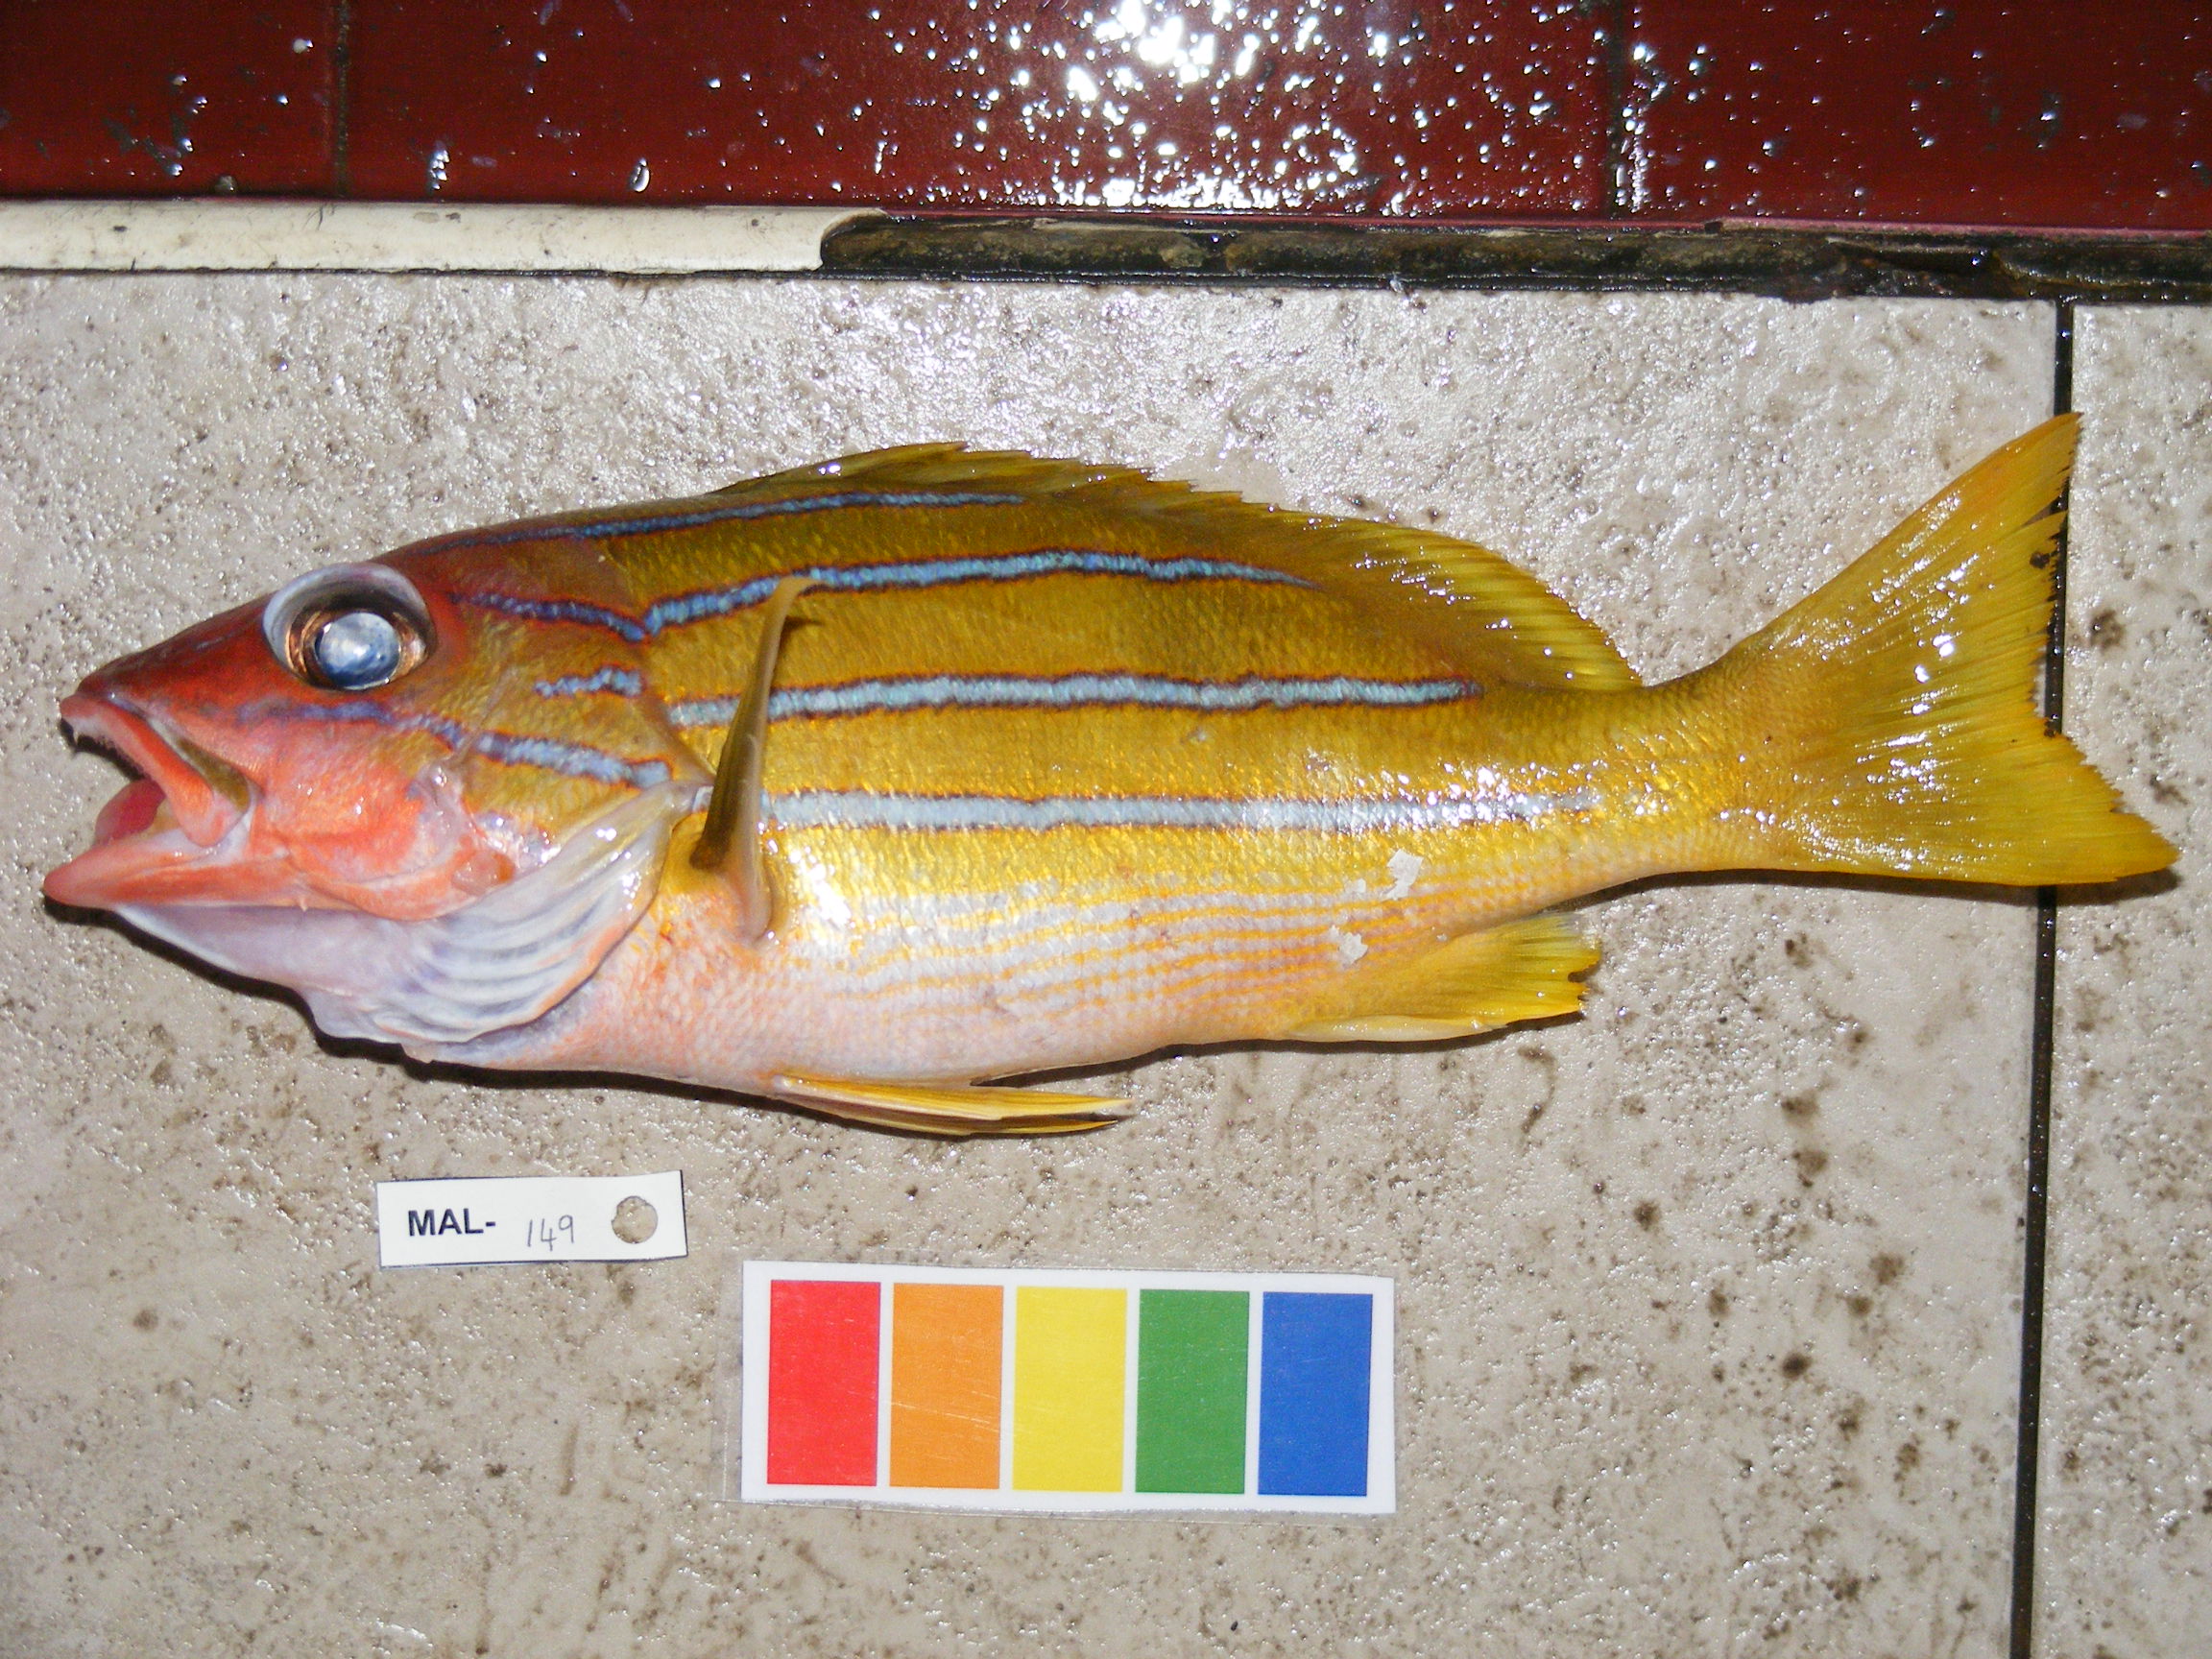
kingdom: Animalia
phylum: Chordata
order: Perciformes
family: Lutjanidae
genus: Lutjanus
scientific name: Lutjanus kasmira
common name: Common bluestripe snapper
